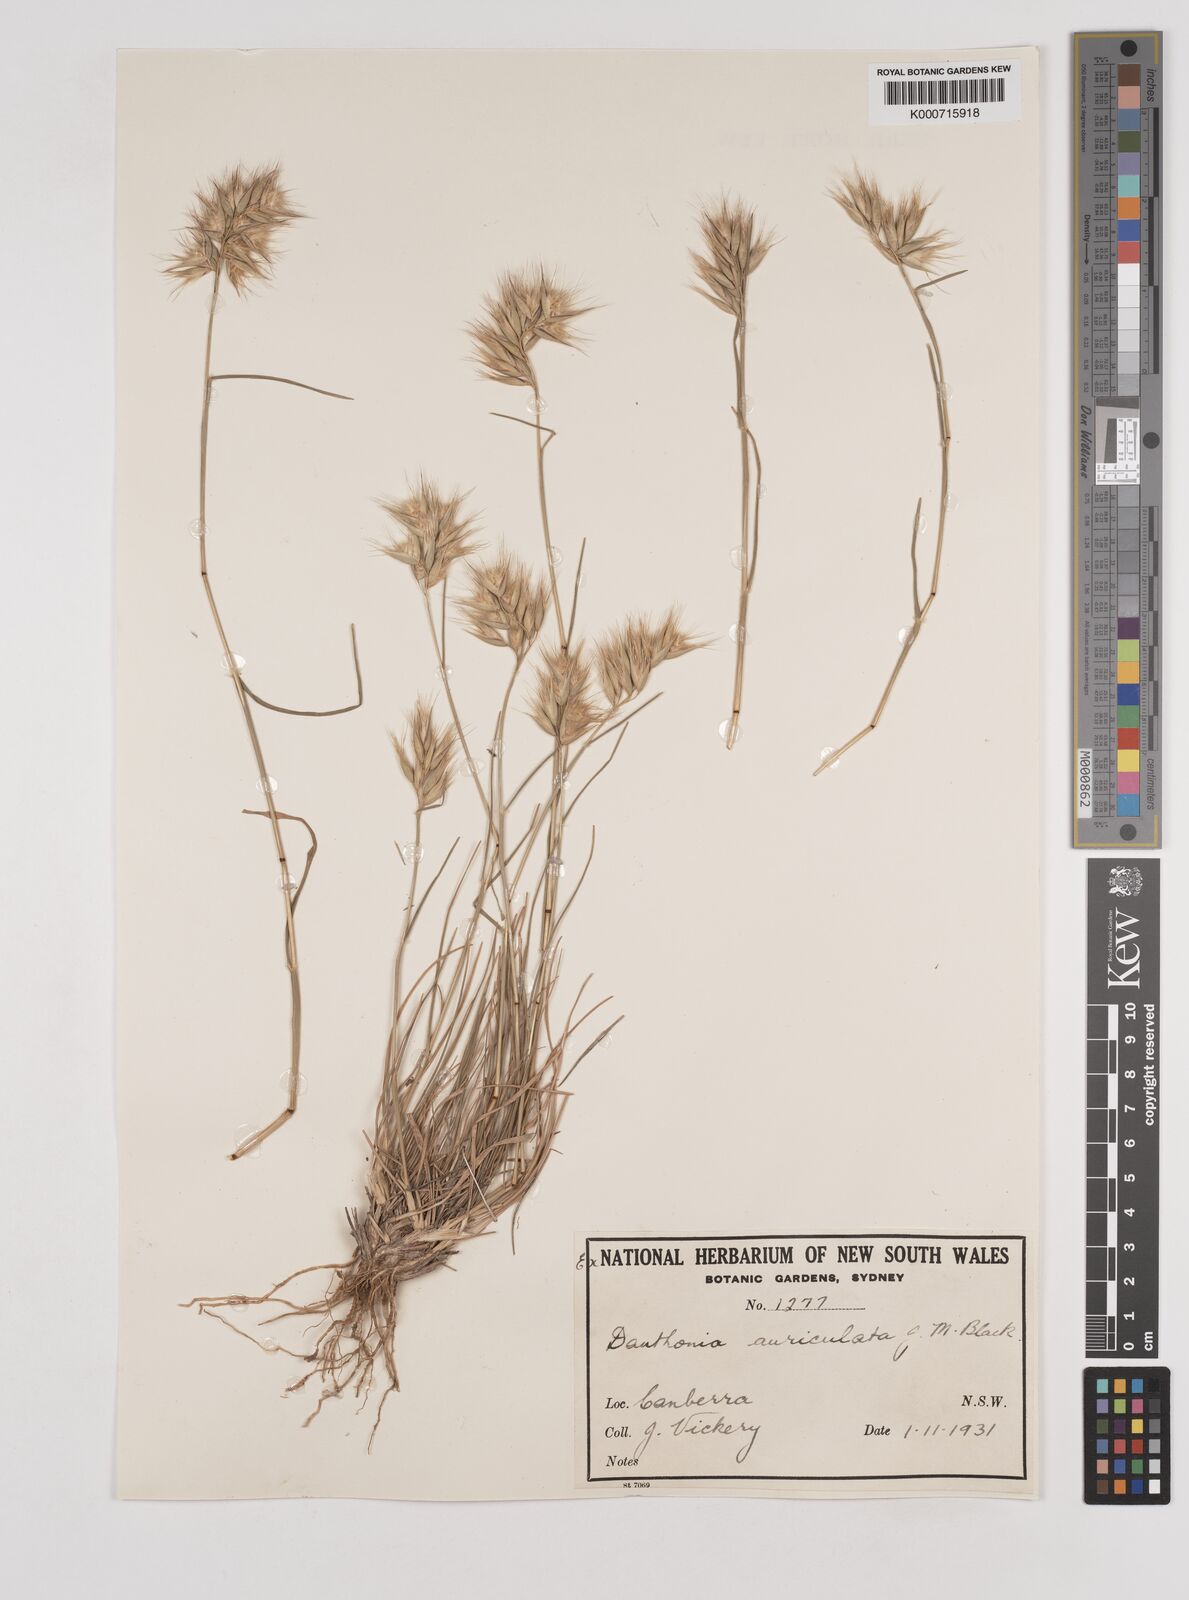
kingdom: Plantae
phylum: Tracheophyta
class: Liliopsida
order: Poales
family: Poaceae
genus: Rytidosperma
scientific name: Rytidosperma auriculatum
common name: Lobed wallaby grass
